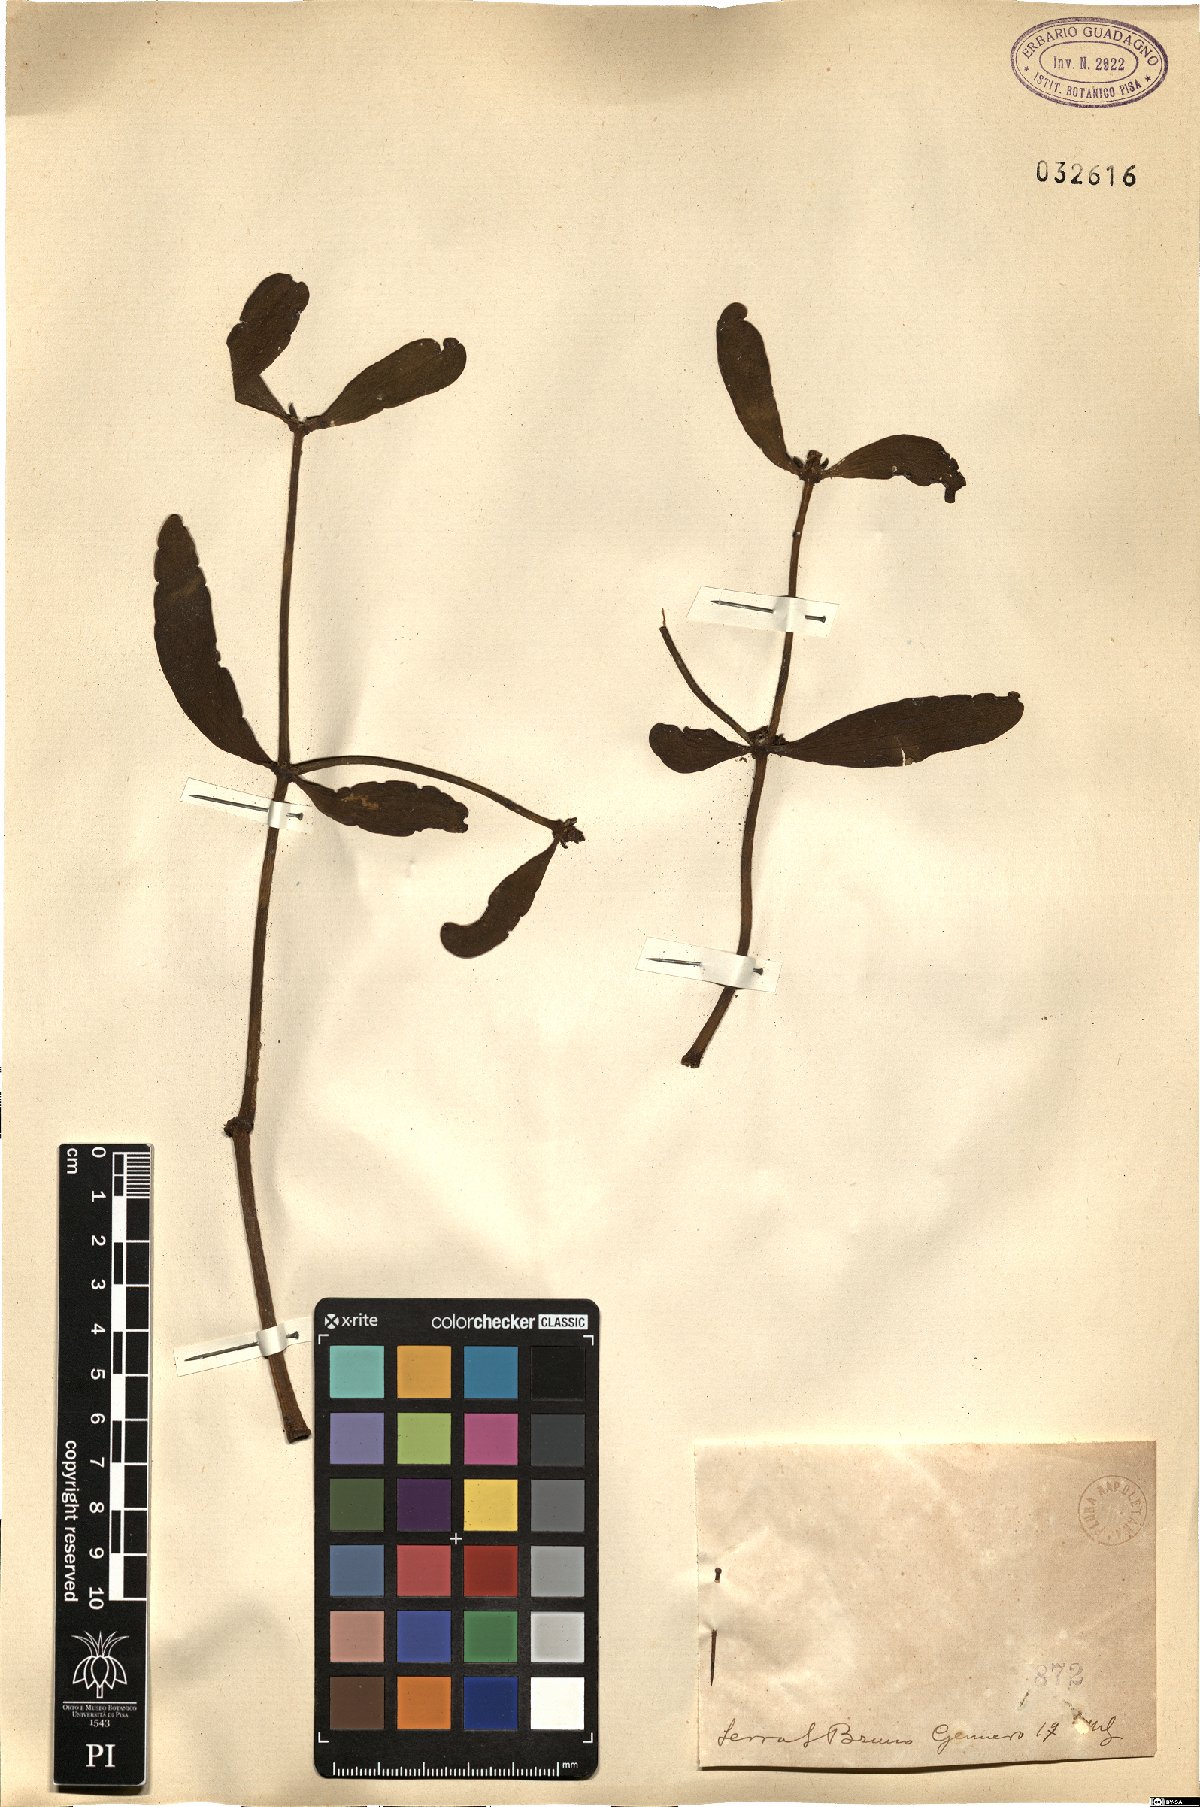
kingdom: Plantae
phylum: Tracheophyta
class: Magnoliopsida
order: Santalales
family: Viscaceae
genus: Viscum
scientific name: Viscum
